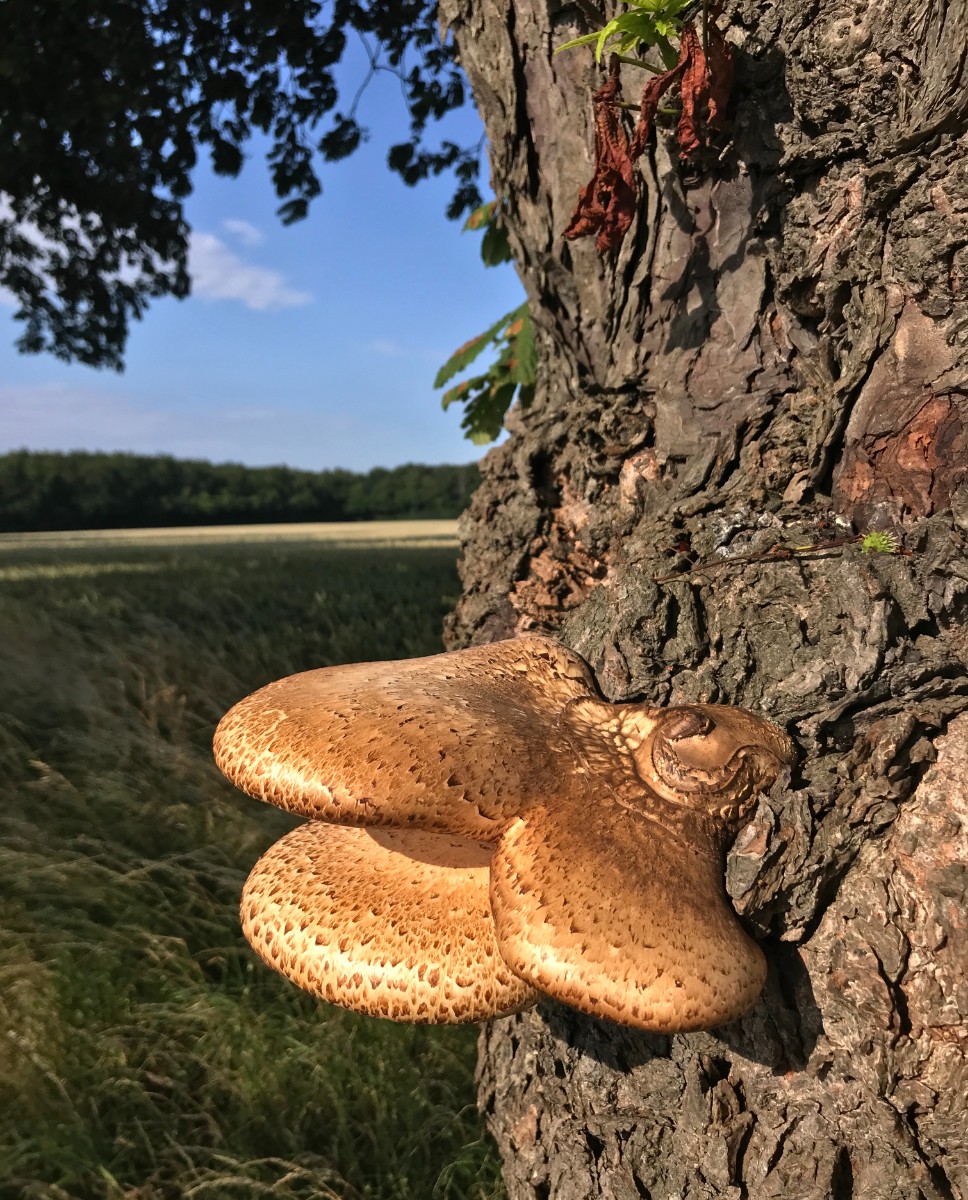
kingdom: Fungi
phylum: Basidiomycota
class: Agaricomycetes
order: Polyporales
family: Polyporaceae
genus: Cerioporus
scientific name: Cerioporus squamosus
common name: skællet stilkporesvamp
